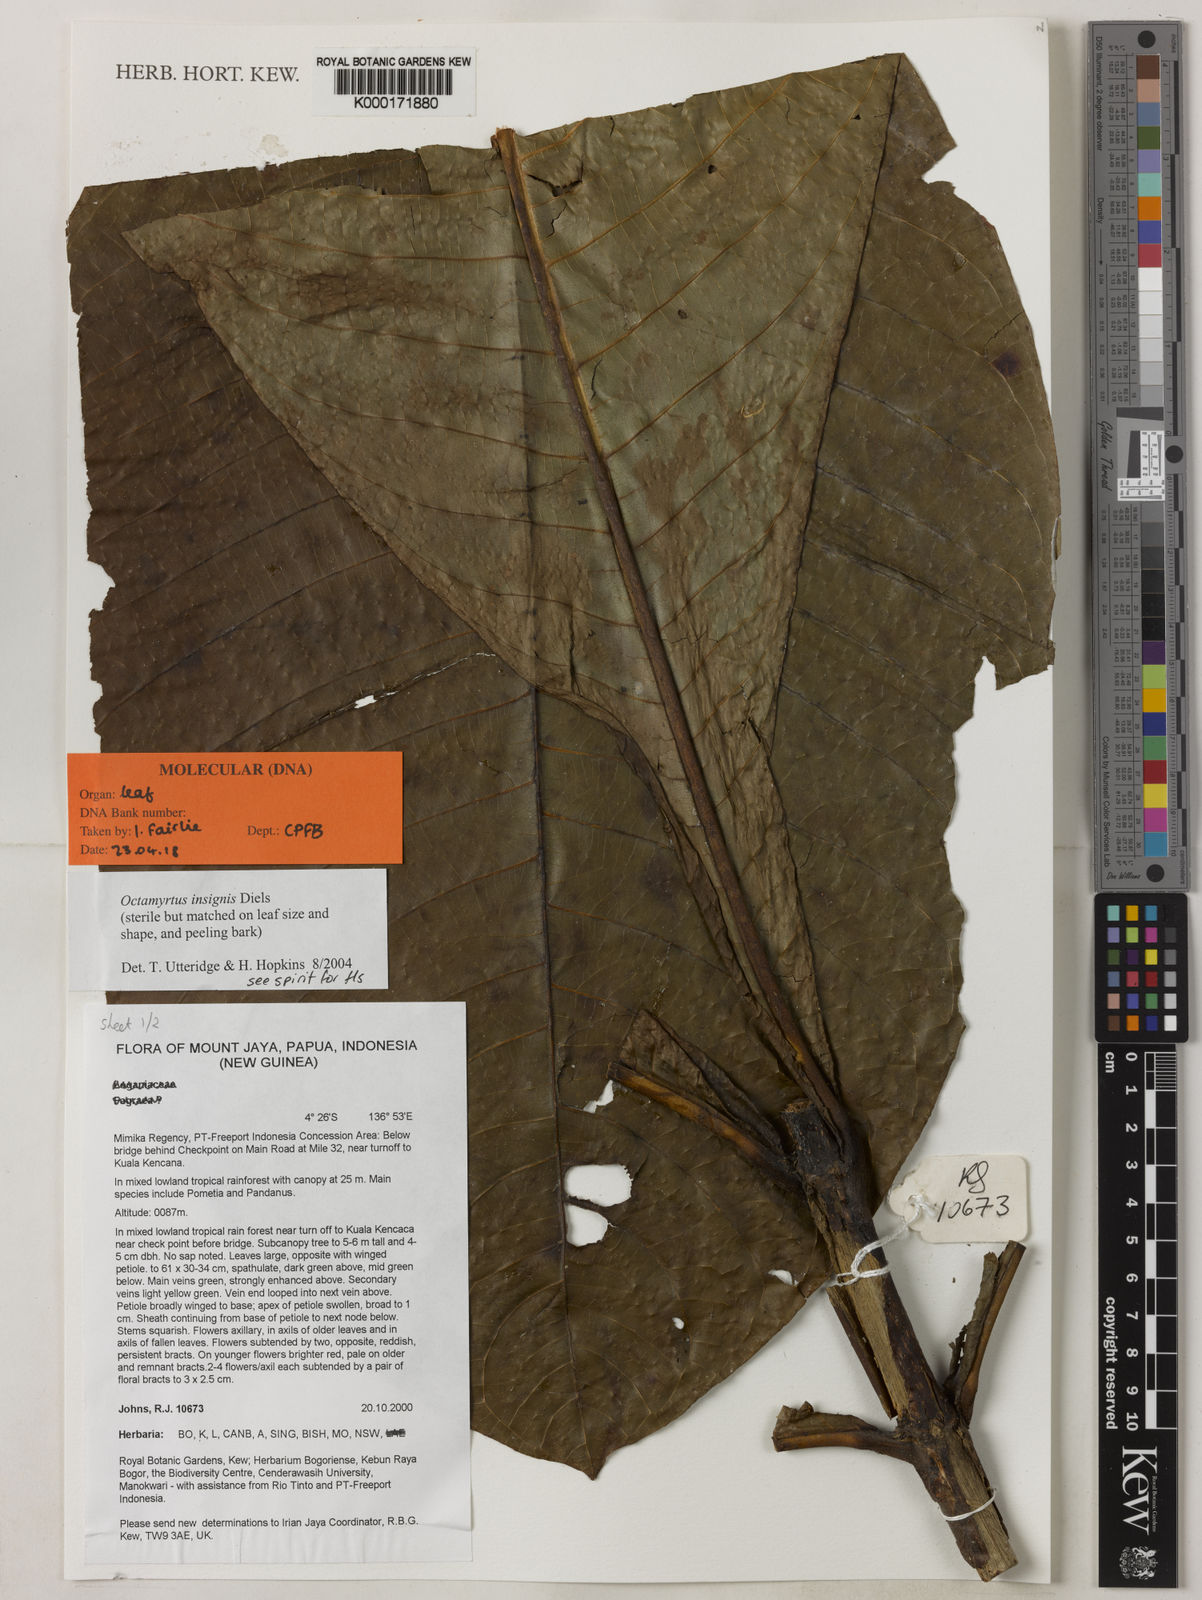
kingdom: Plantae
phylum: Tracheophyta
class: Magnoliopsida
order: Myrtales
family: Myrtaceae
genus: Octamyrtus
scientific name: Octamyrtus insignis
